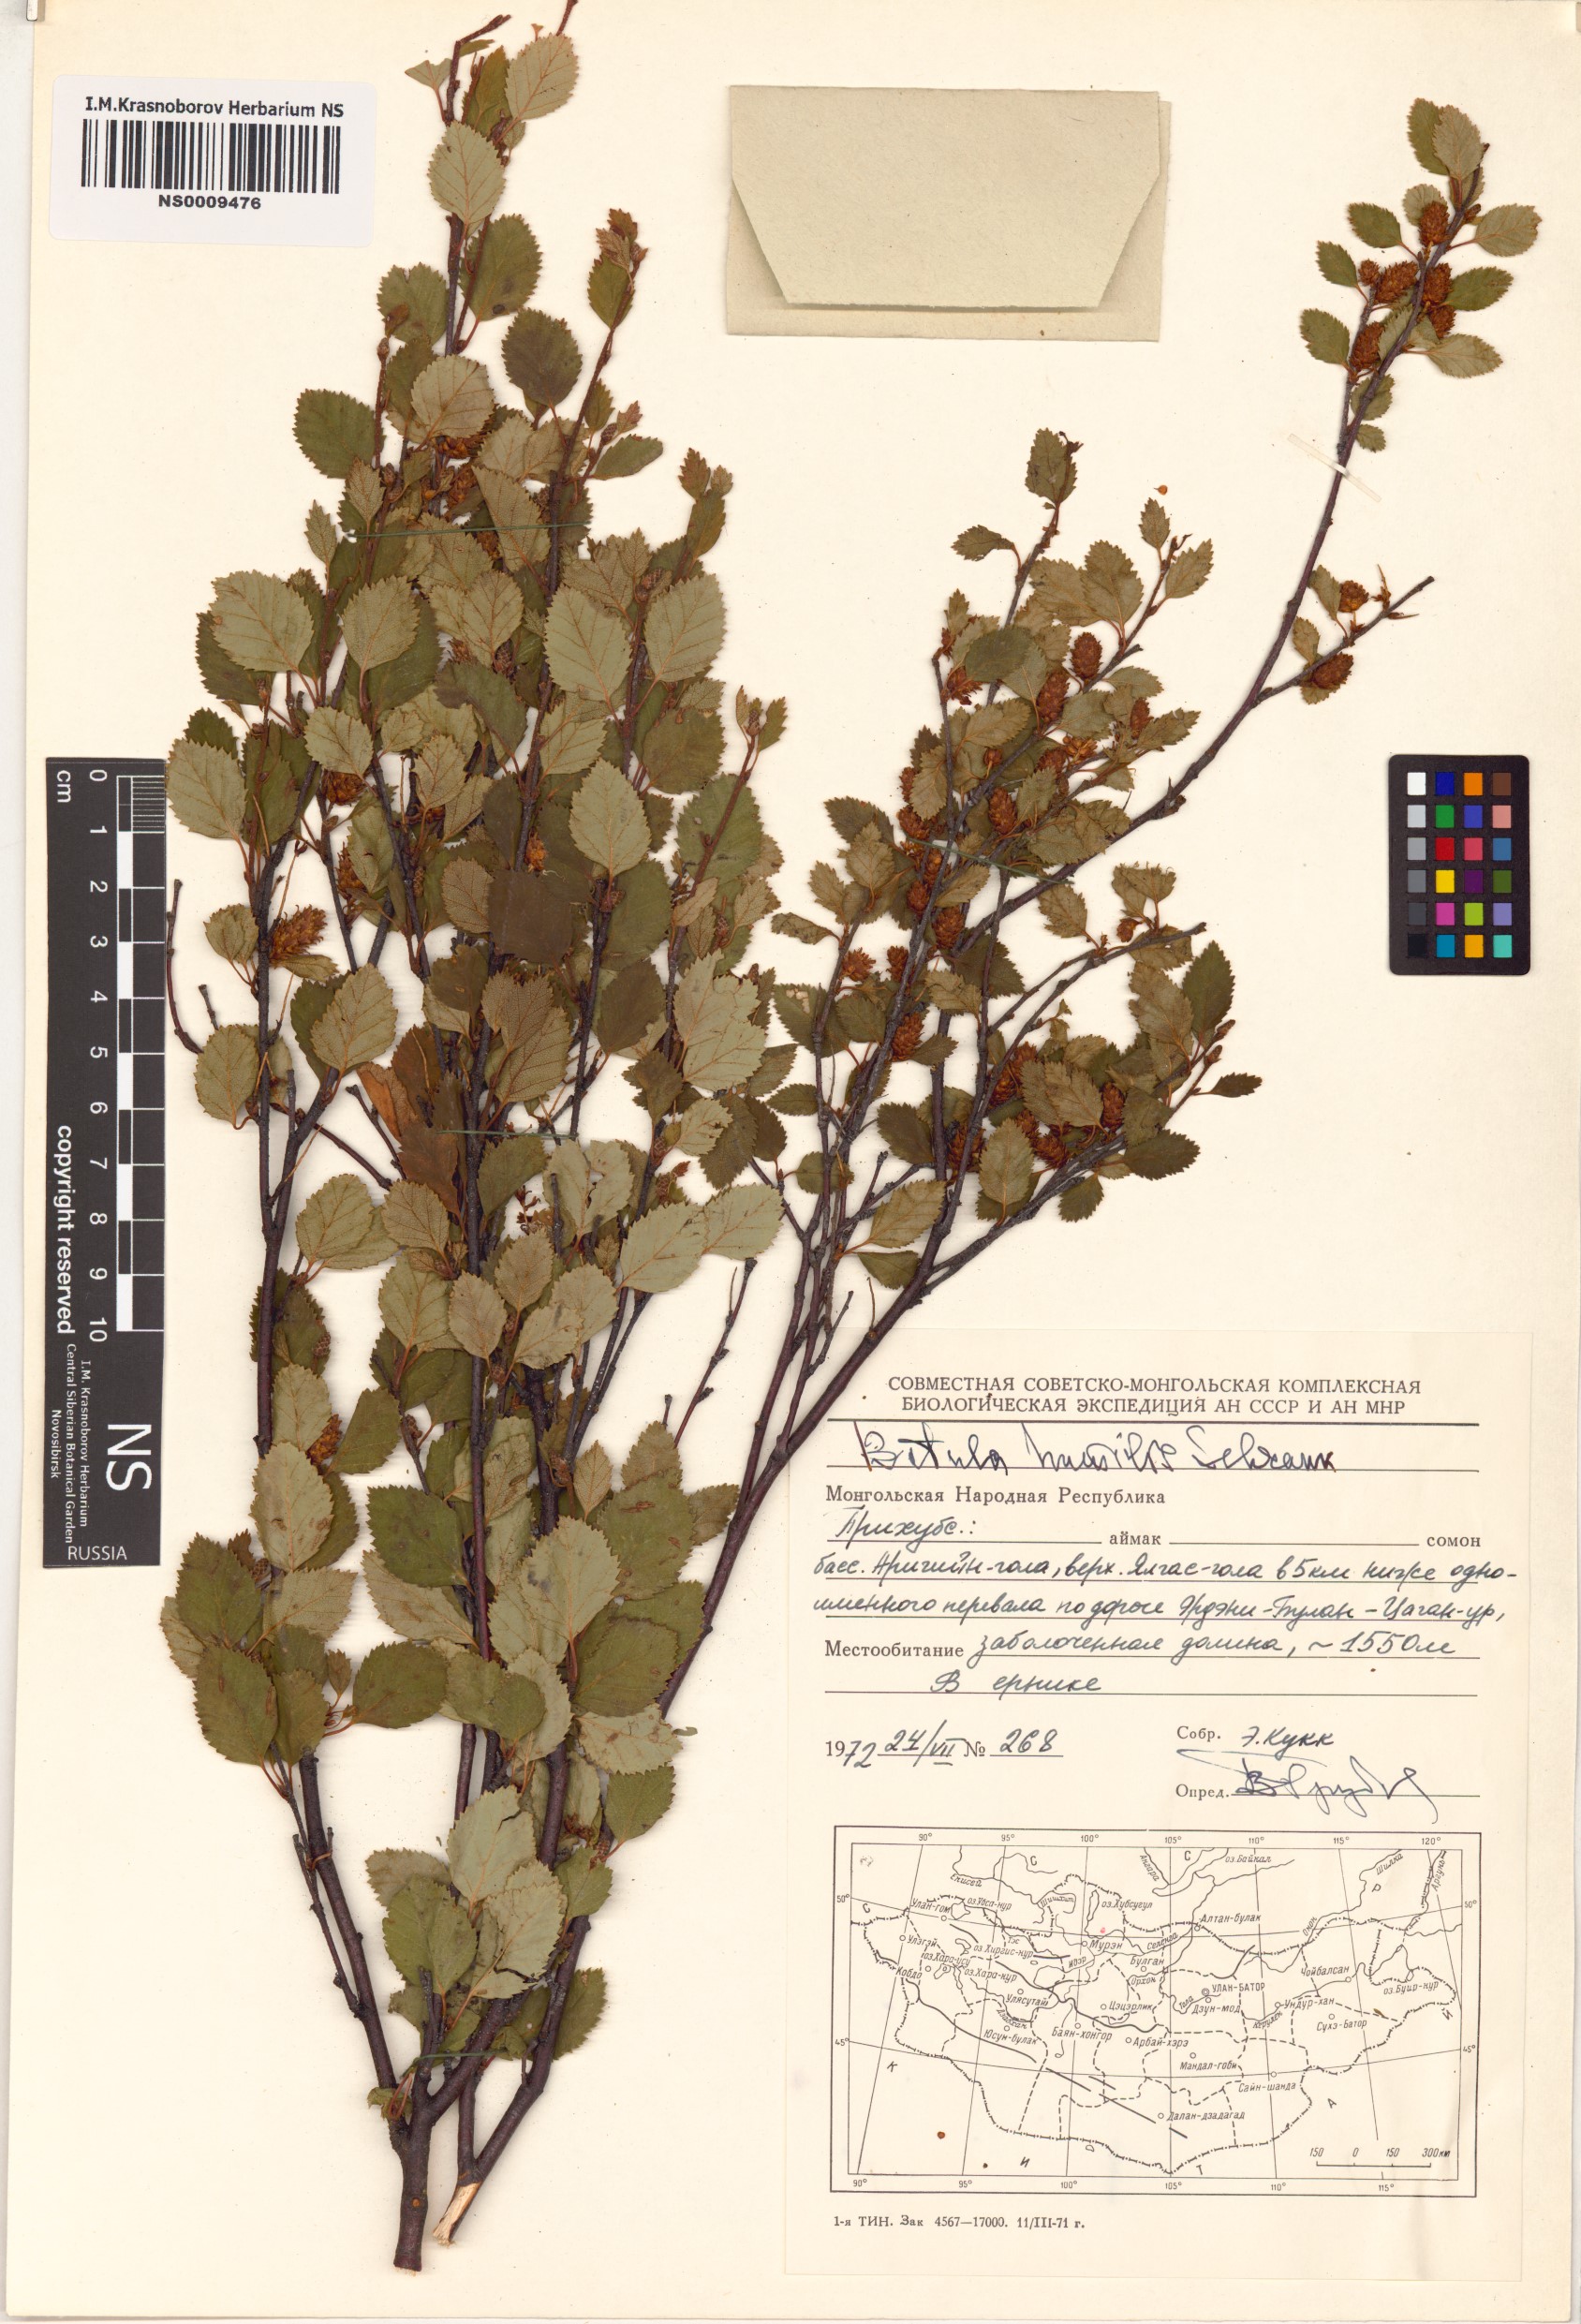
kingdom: Plantae
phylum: Tracheophyta
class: Magnoliopsida
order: Fagales
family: Betulaceae
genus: Betula
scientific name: Betula humilis
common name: Shrubby birch
